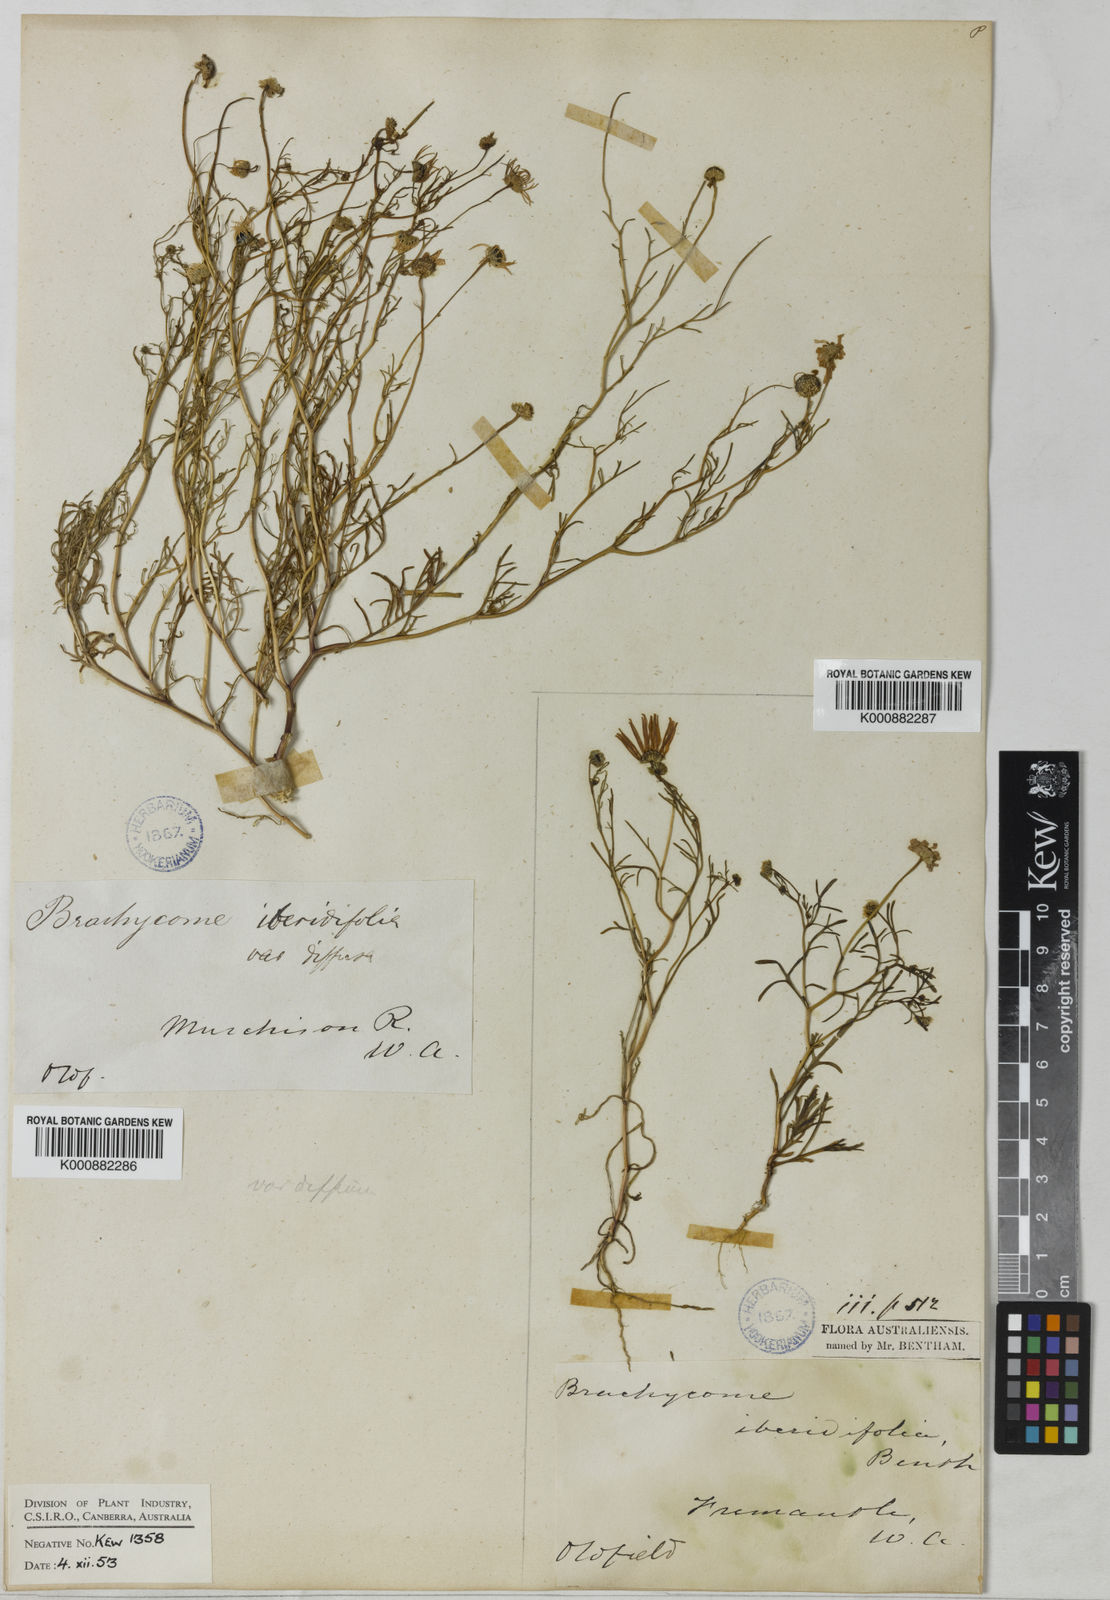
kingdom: Plantae
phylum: Tracheophyta
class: Magnoliopsida
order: Asterales
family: Asteraceae
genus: Brachyscome
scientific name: Brachyscome iberidifolia
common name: Swan river daisy
